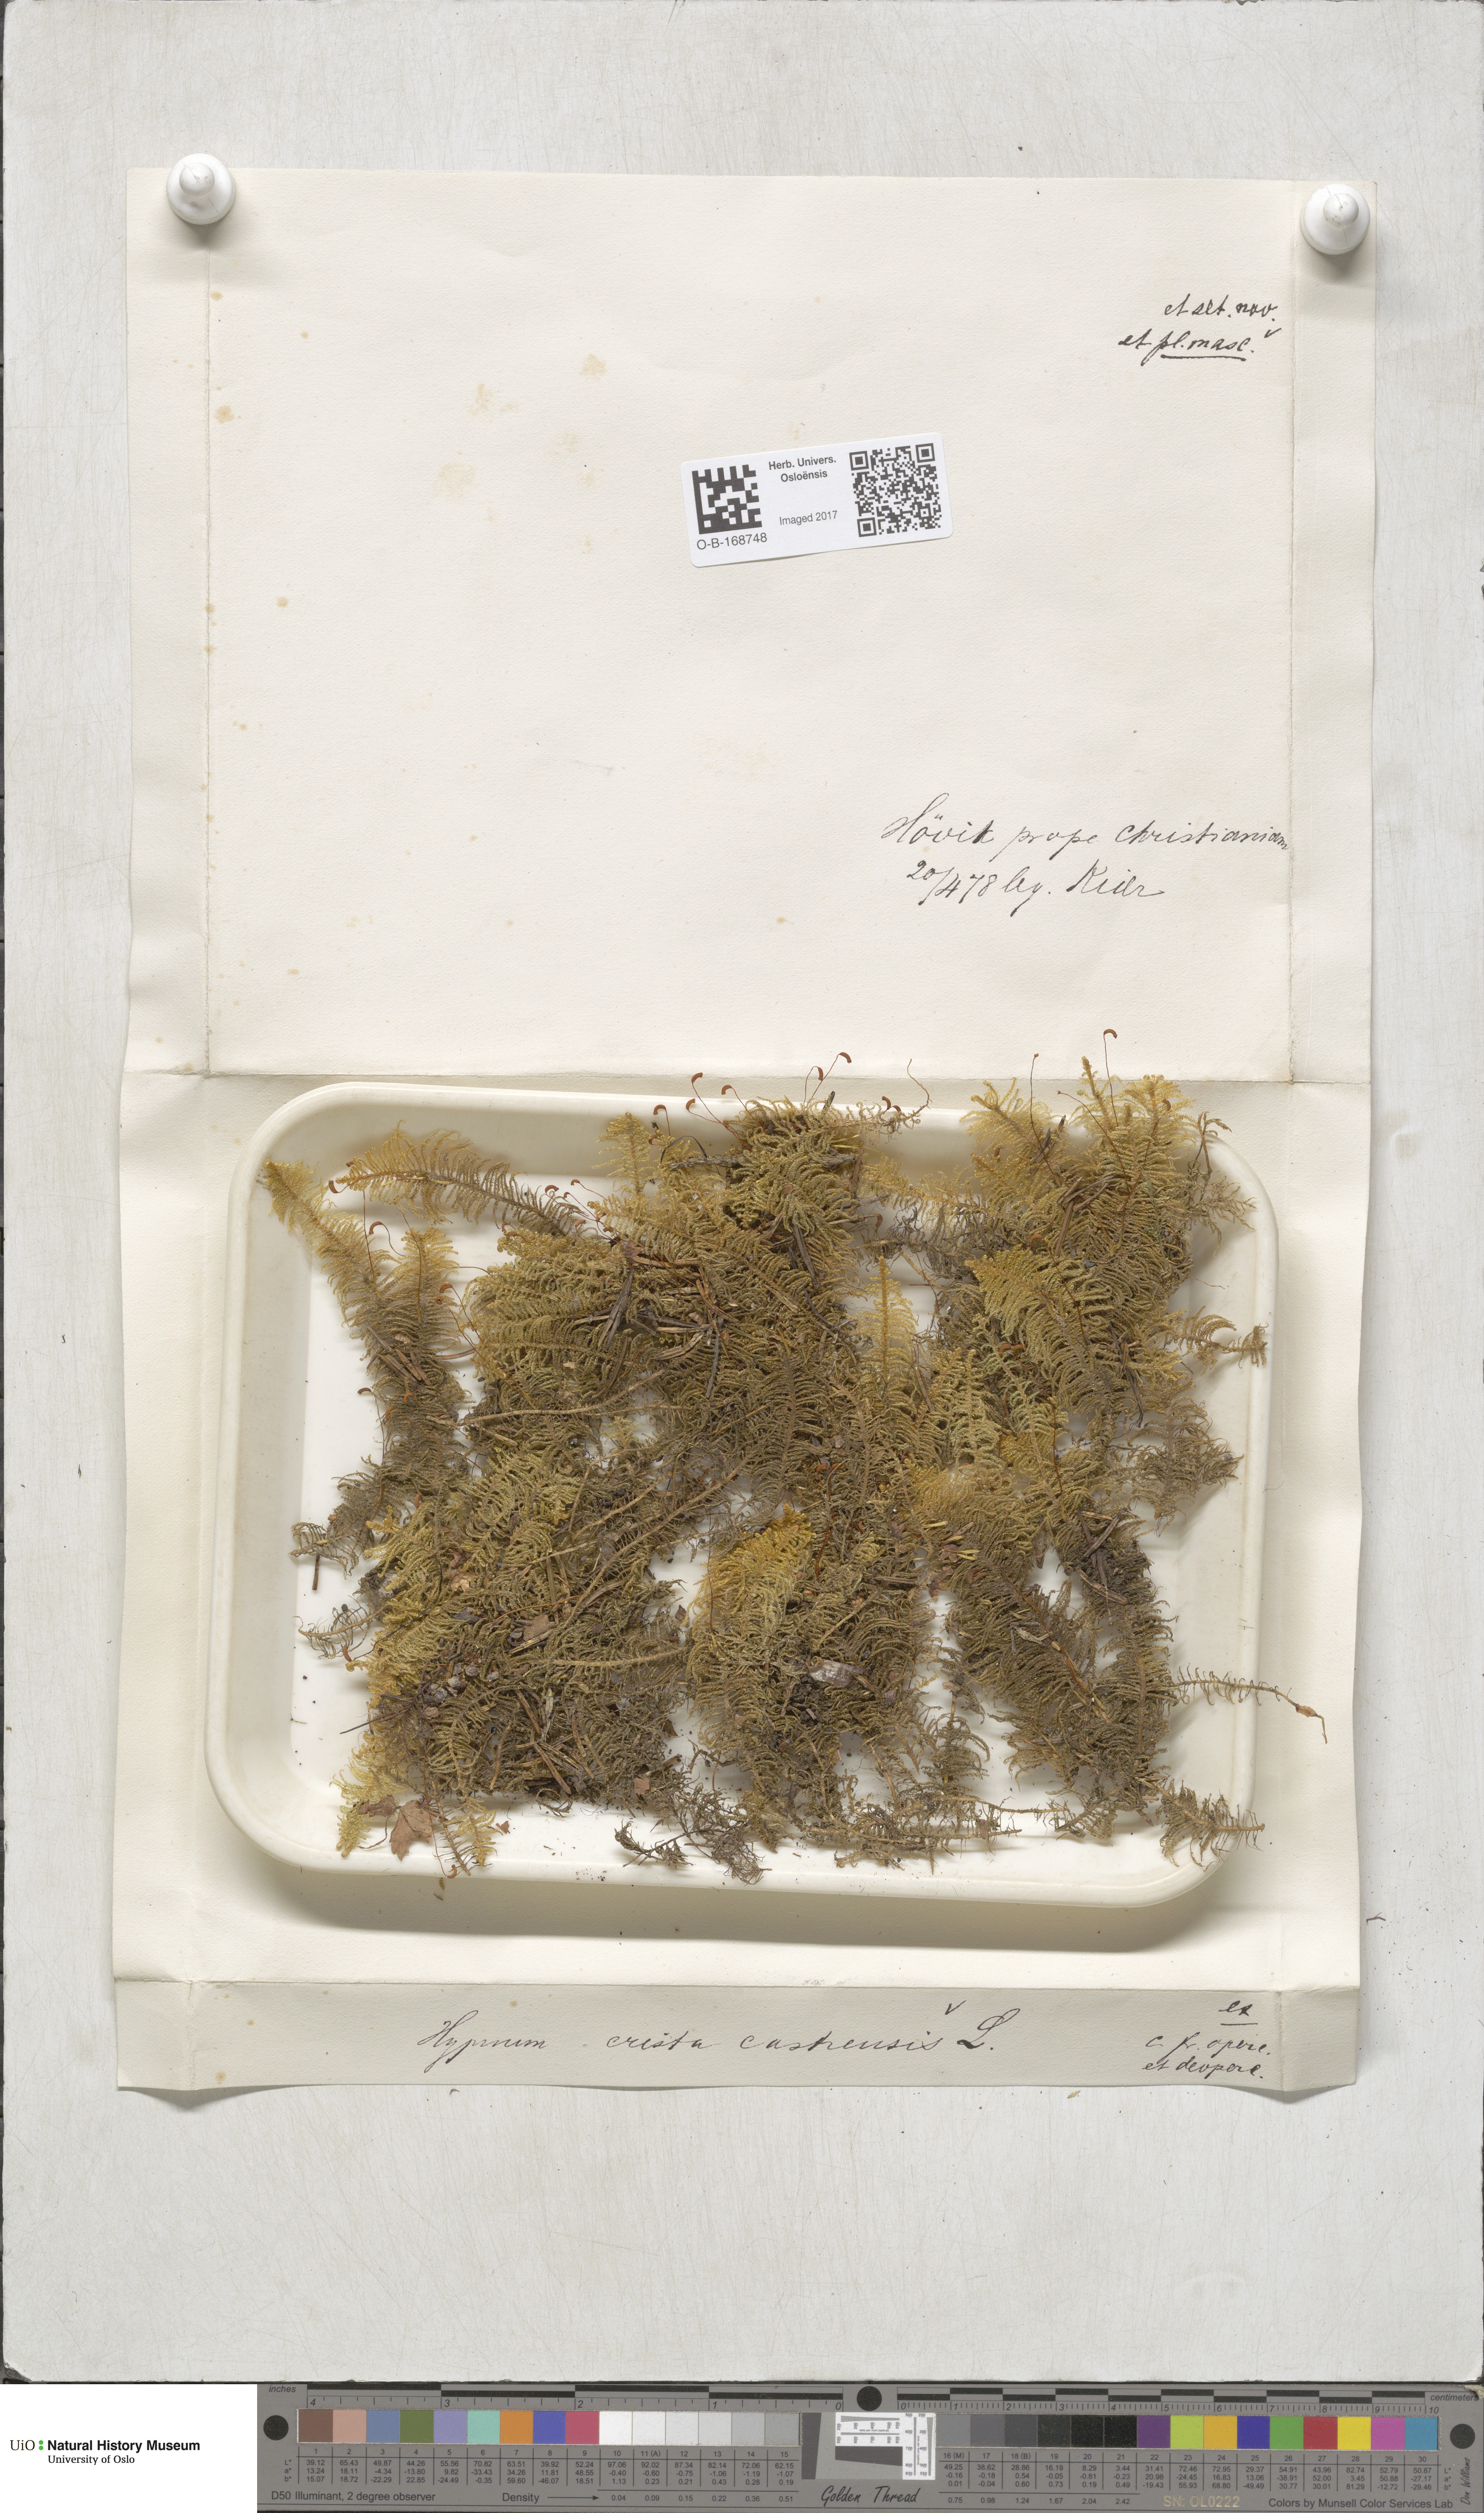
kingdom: Plantae
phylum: Bryophyta
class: Bryopsida
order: Hypnales
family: Pylaisiaceae
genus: Ptilium
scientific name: Ptilium crista-castrensis
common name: Knight's plume moss
